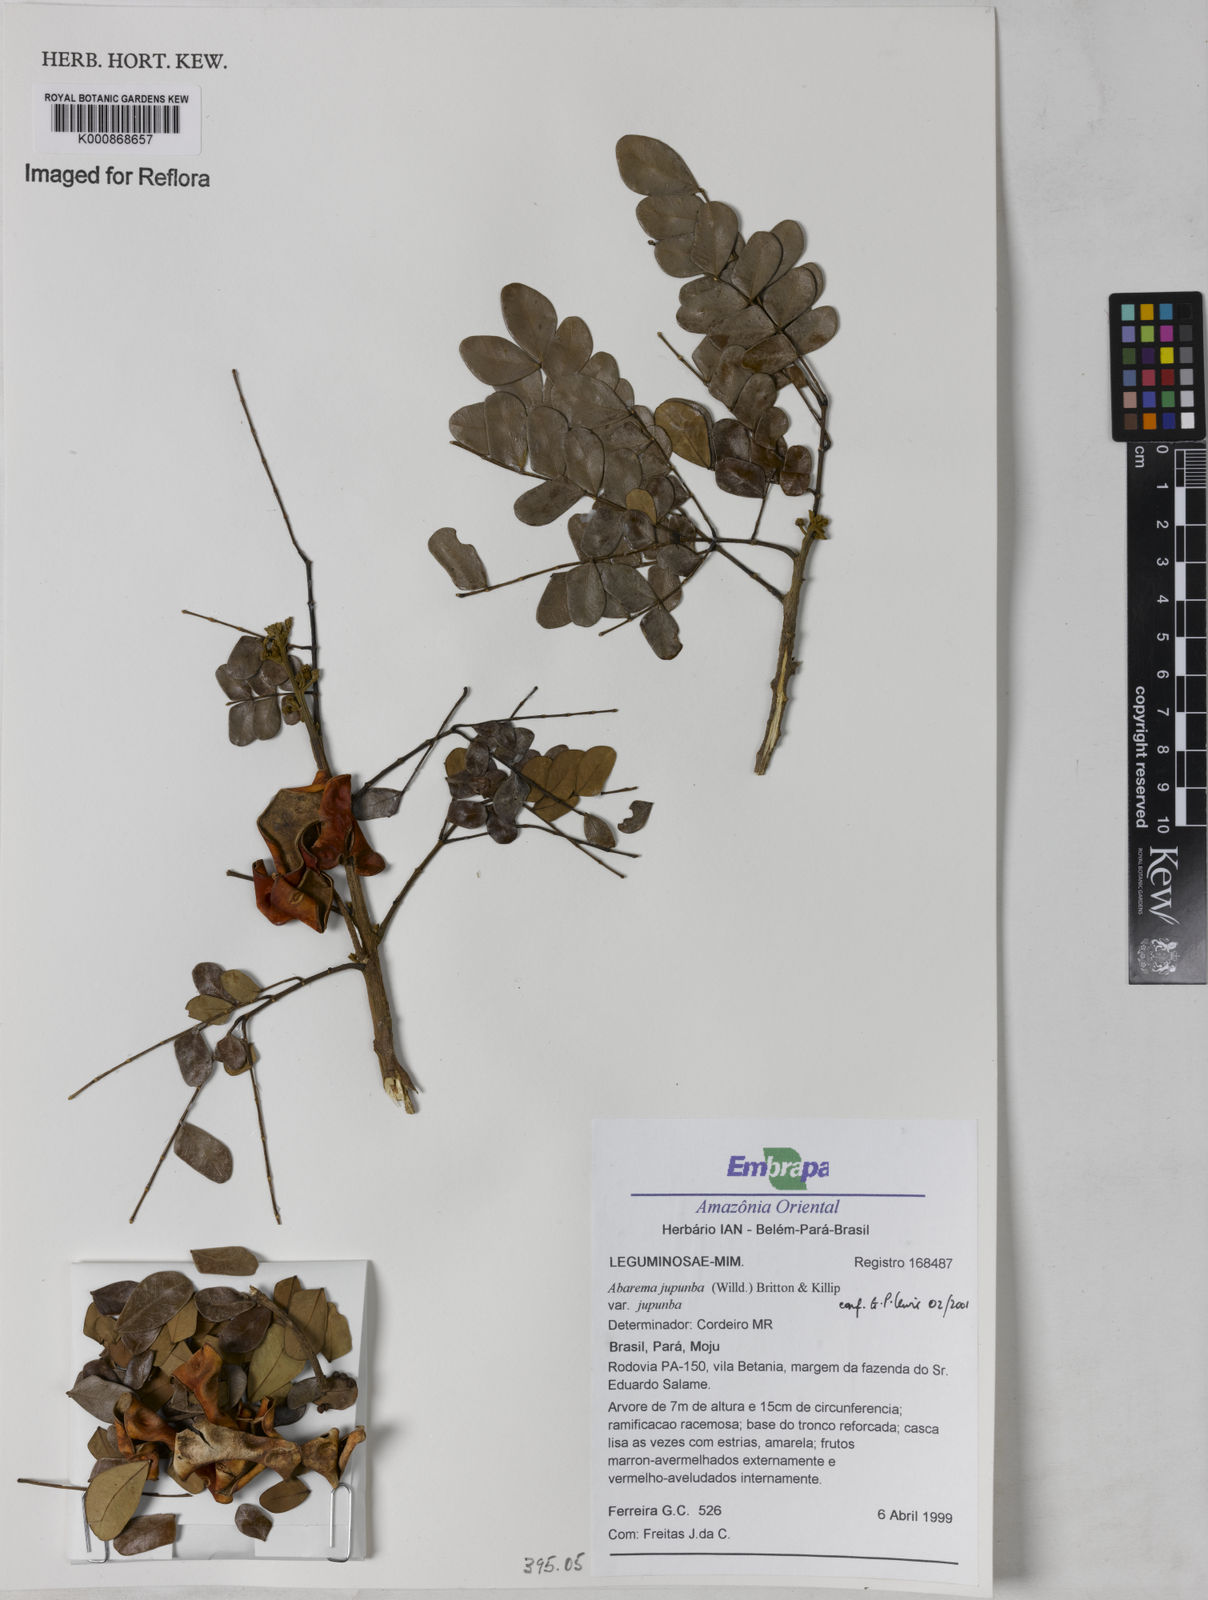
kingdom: Plantae
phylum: Tracheophyta
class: Magnoliopsida
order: Fabales
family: Fabaceae
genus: Jupunba
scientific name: Jupunba trapezifolia
